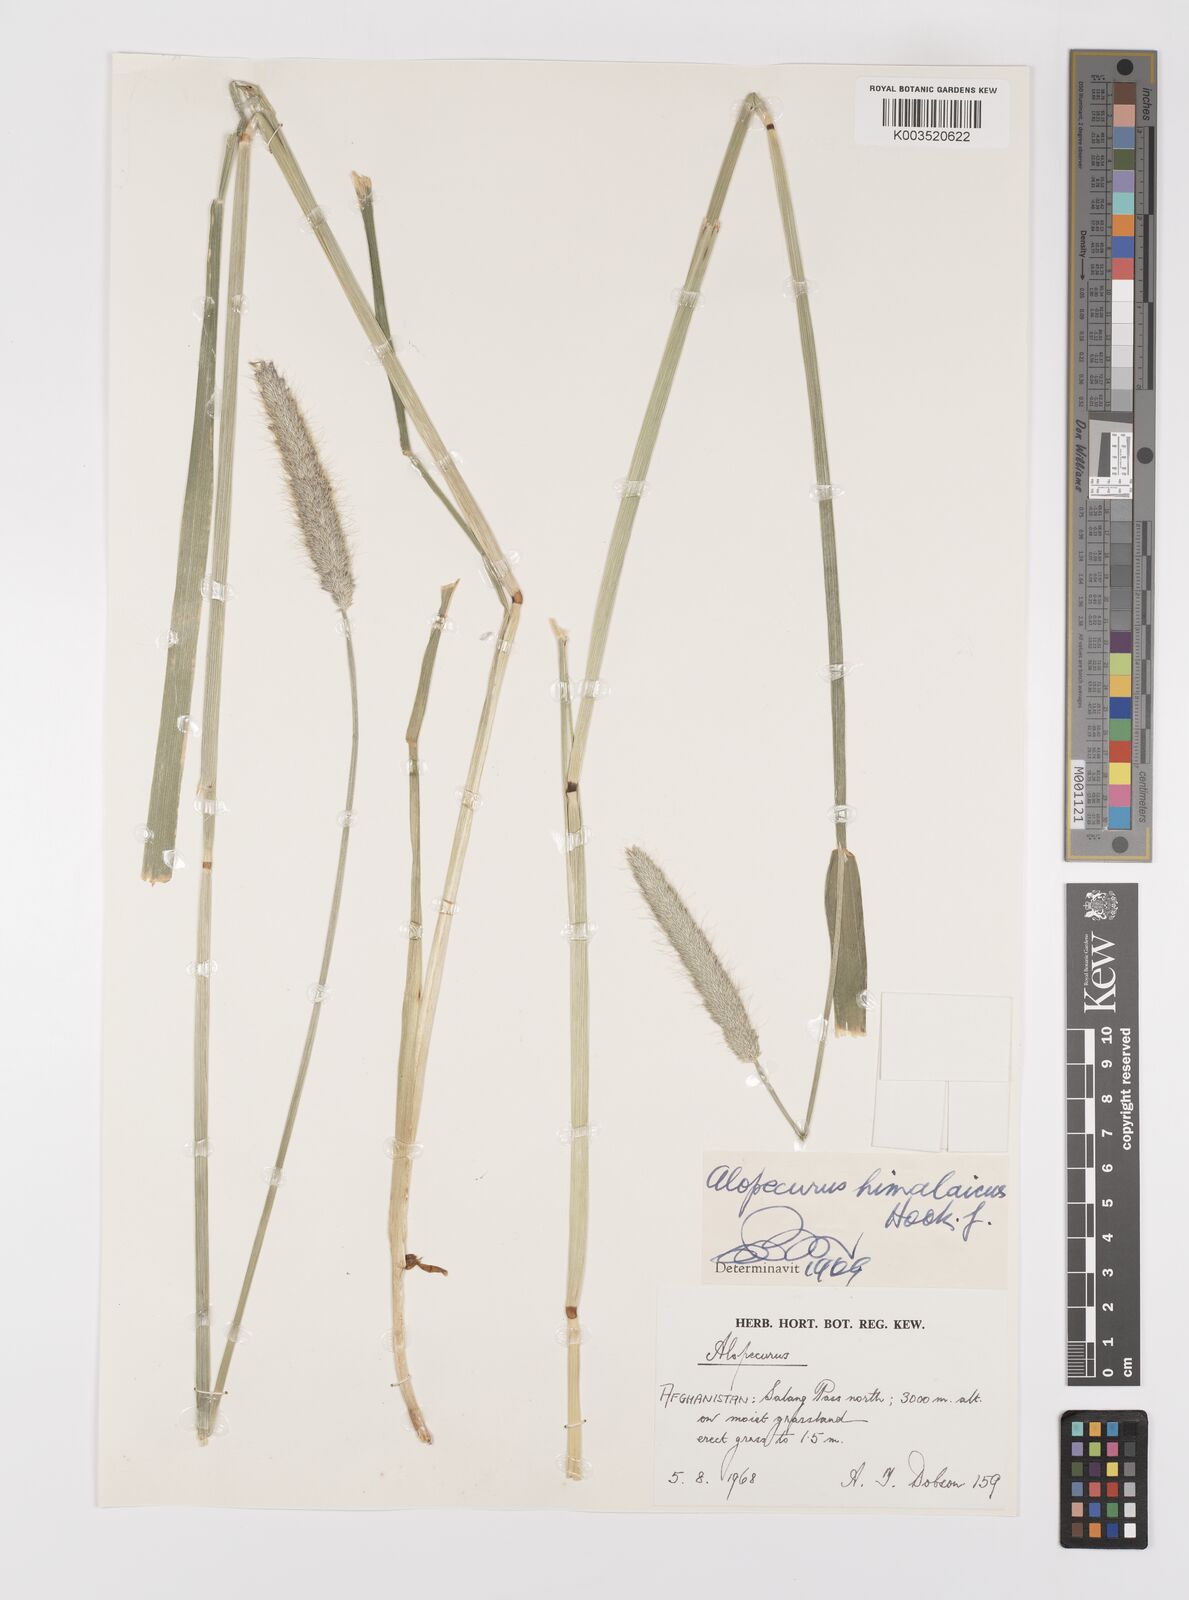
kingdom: Plantae
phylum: Tracheophyta
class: Liliopsida
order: Poales
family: Poaceae
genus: Alopecurus
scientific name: Alopecurus himalaicus
